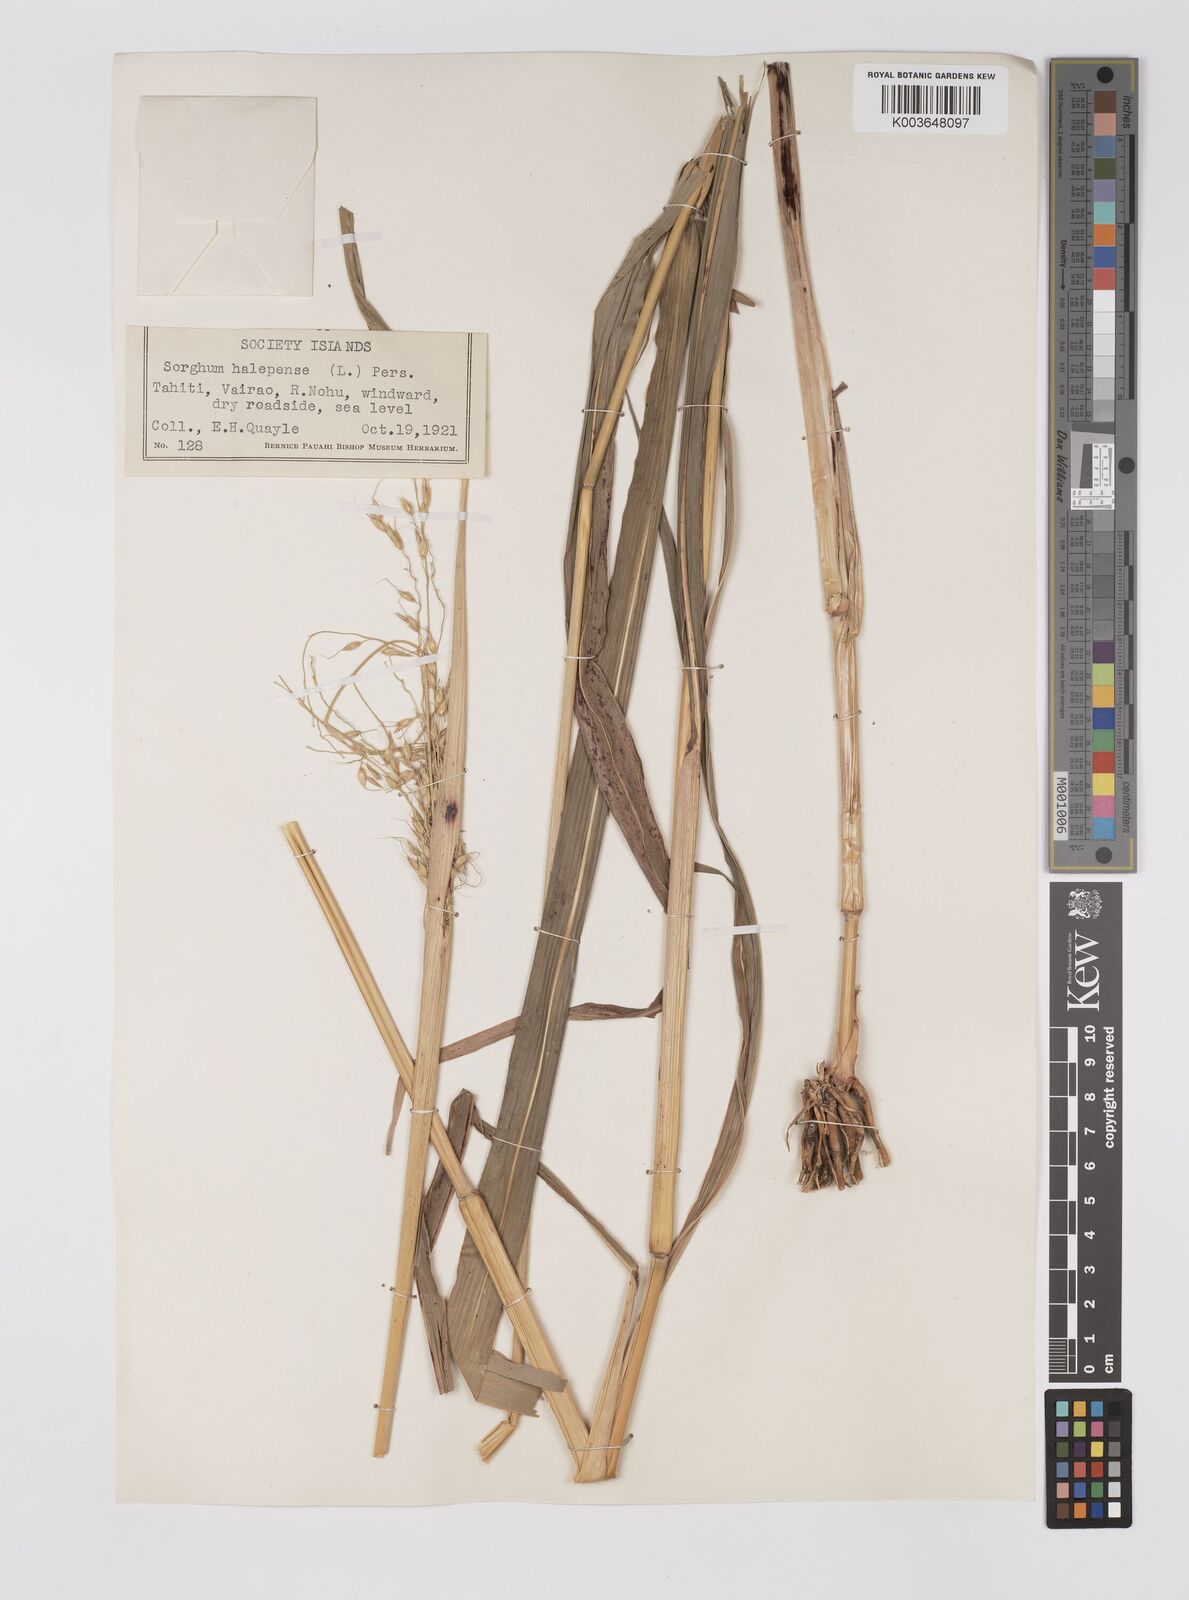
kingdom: Plantae
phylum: Tracheophyta
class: Liliopsida
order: Poales
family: Poaceae
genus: Sorghum
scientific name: Sorghum halepense
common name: Johnson-grass
